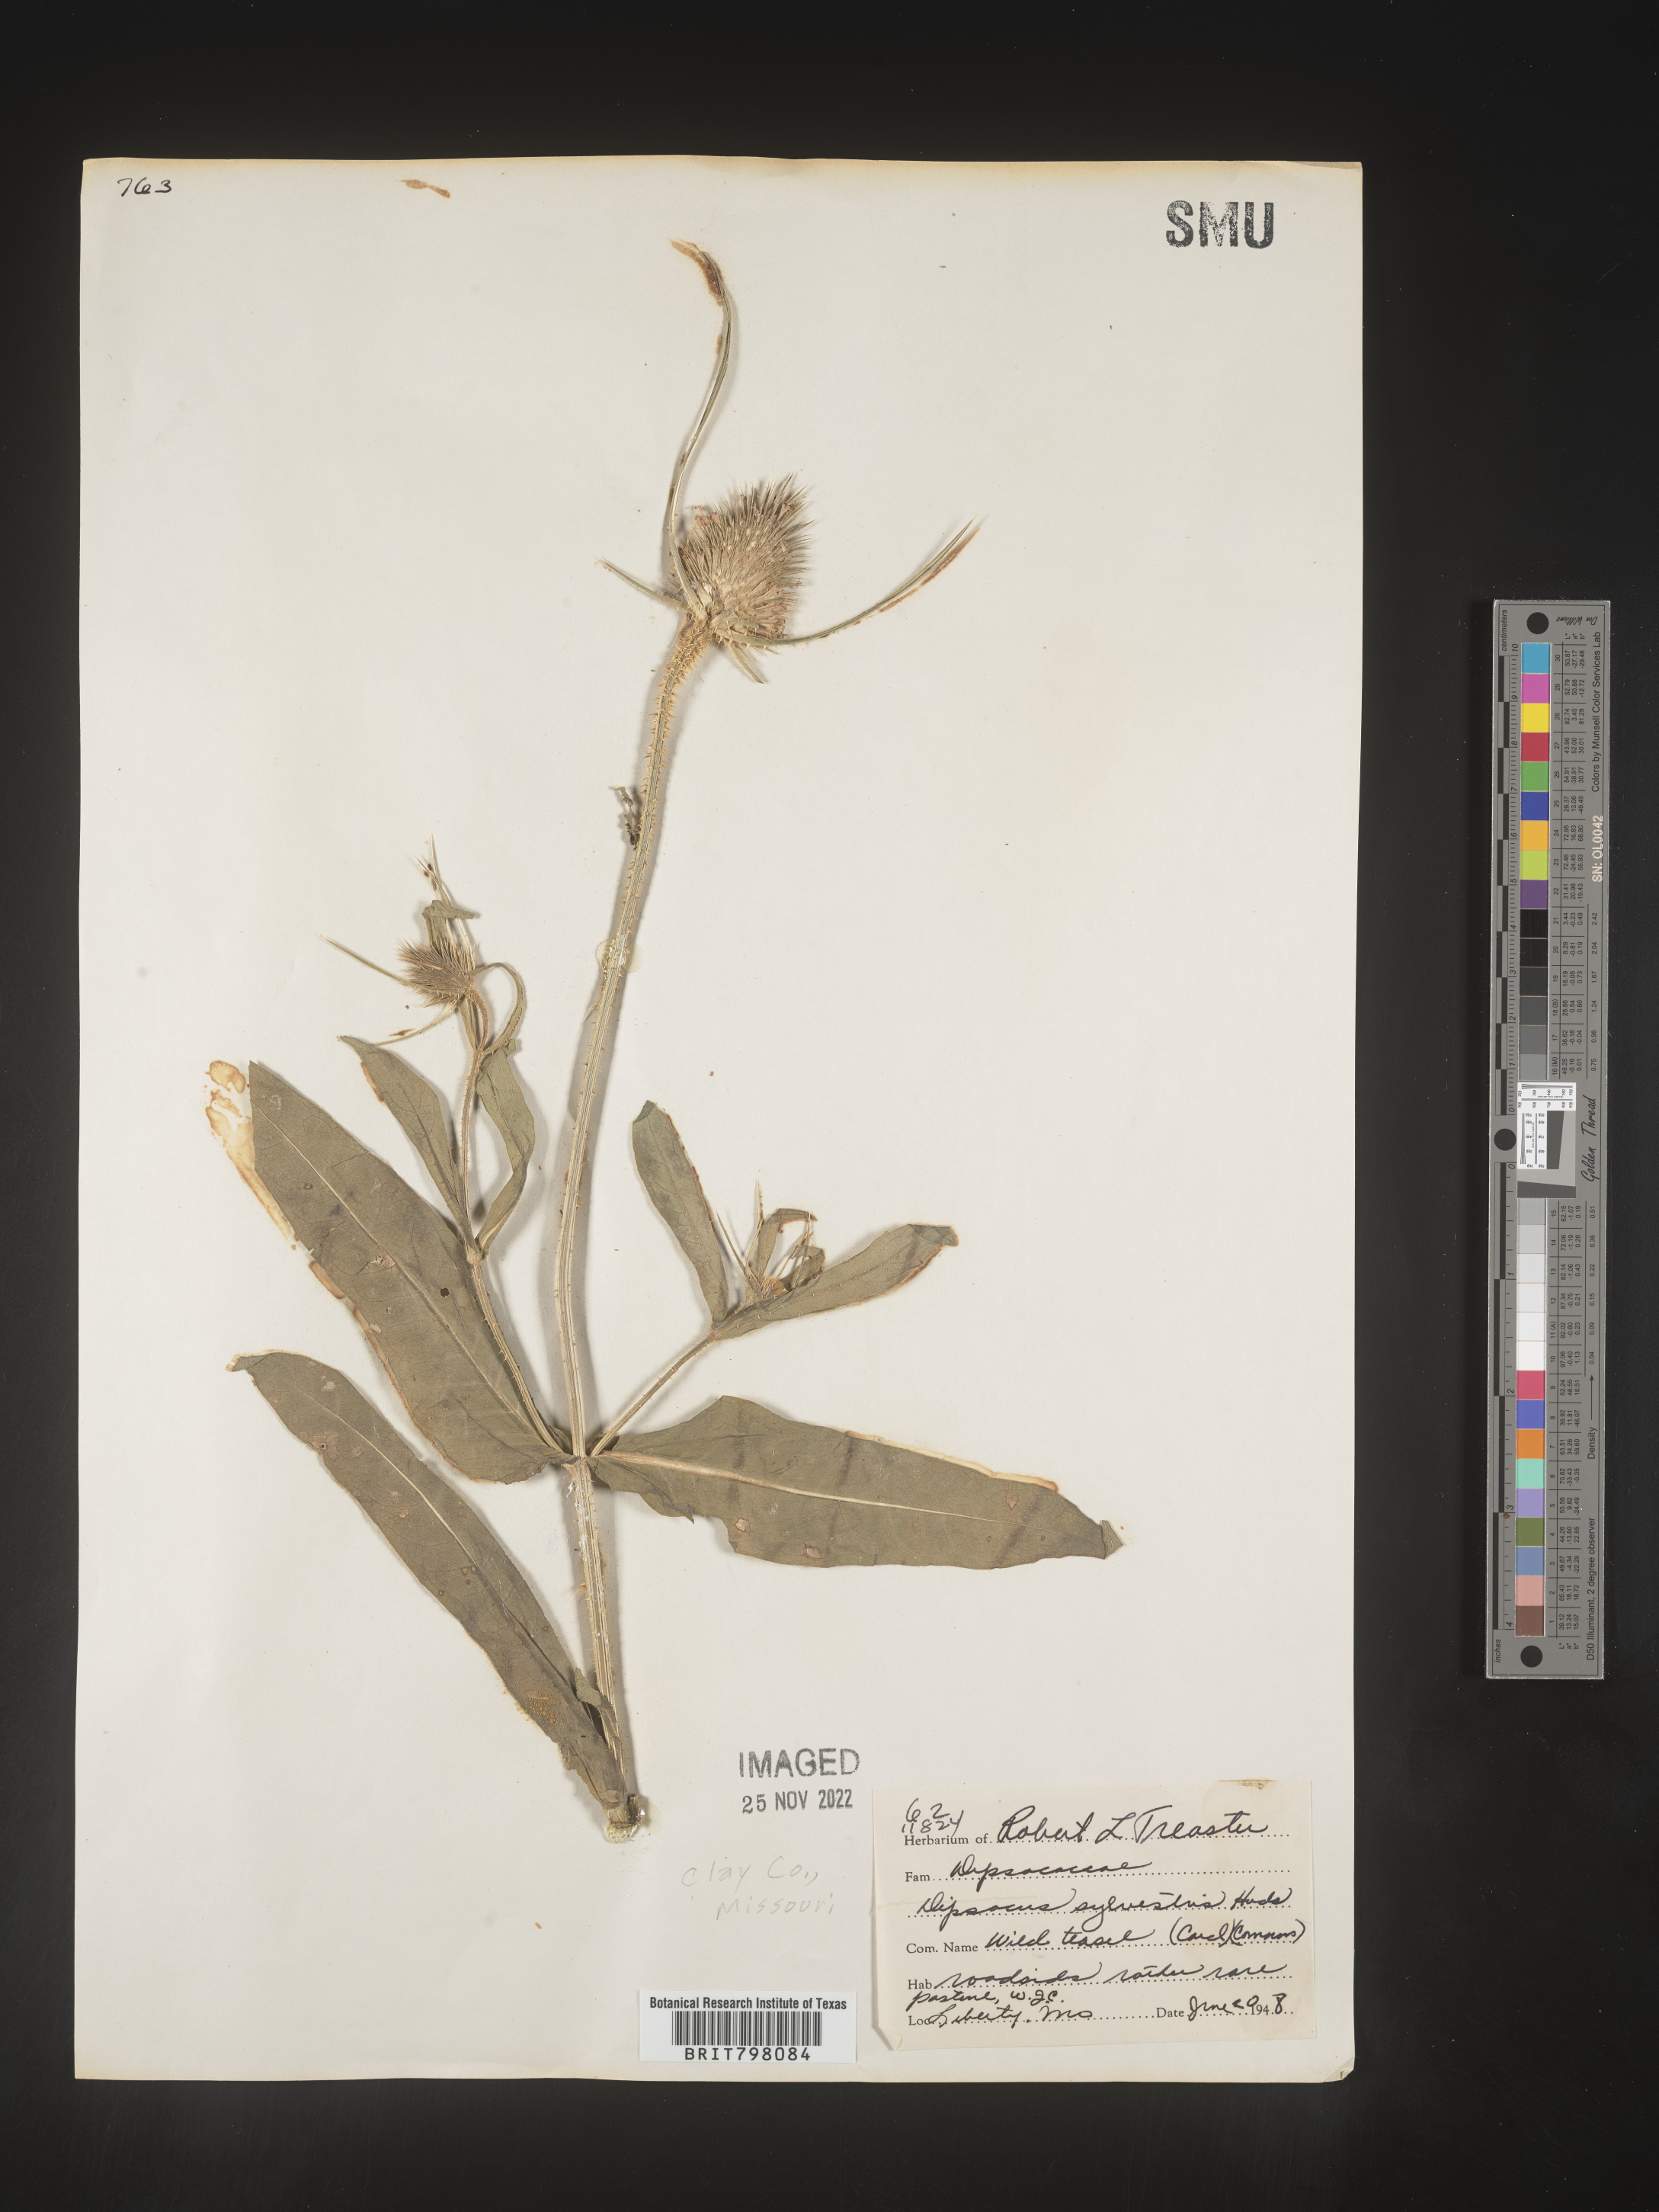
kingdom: Plantae
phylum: Tracheophyta
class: Magnoliopsida
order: Dipsacales
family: Caprifoliaceae
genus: Dipsacus
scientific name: Dipsacus fullonum
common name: Teasel
